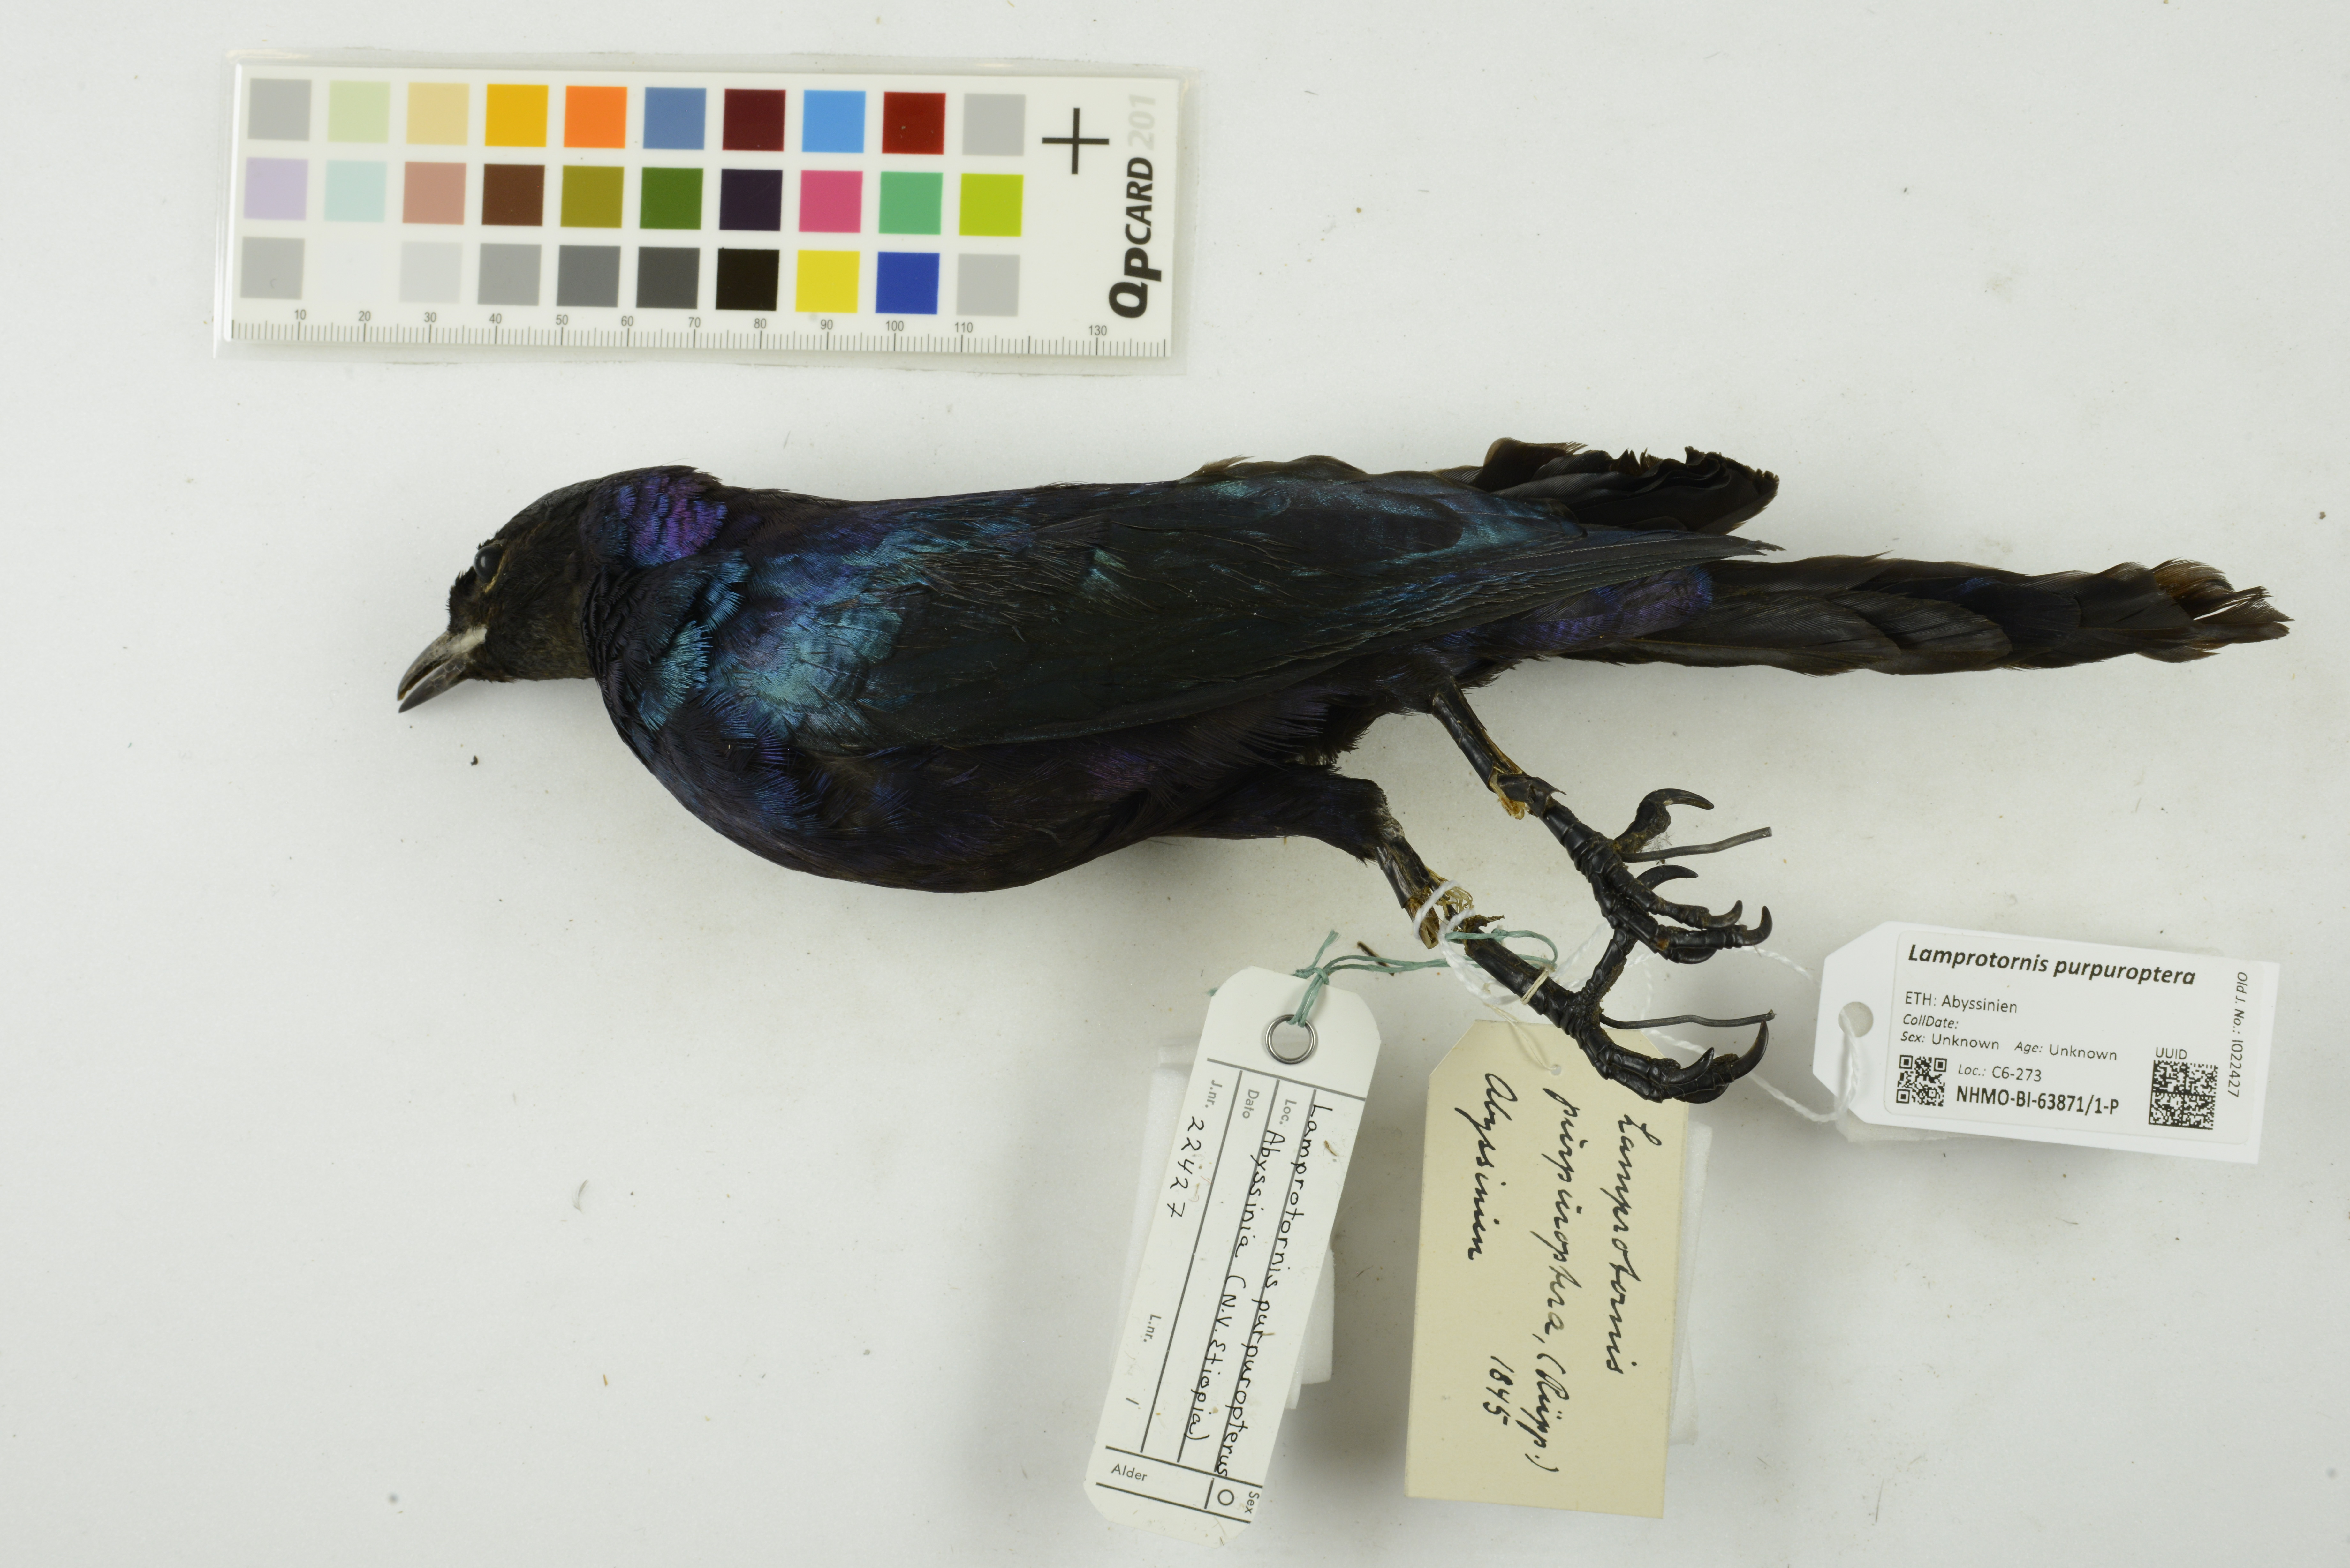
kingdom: Animalia
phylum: Chordata
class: Aves
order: Passeriformes
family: Sturnidae
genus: Lamprotornis
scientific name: Lamprotornis purpuroptera
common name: Rüppell's starling
